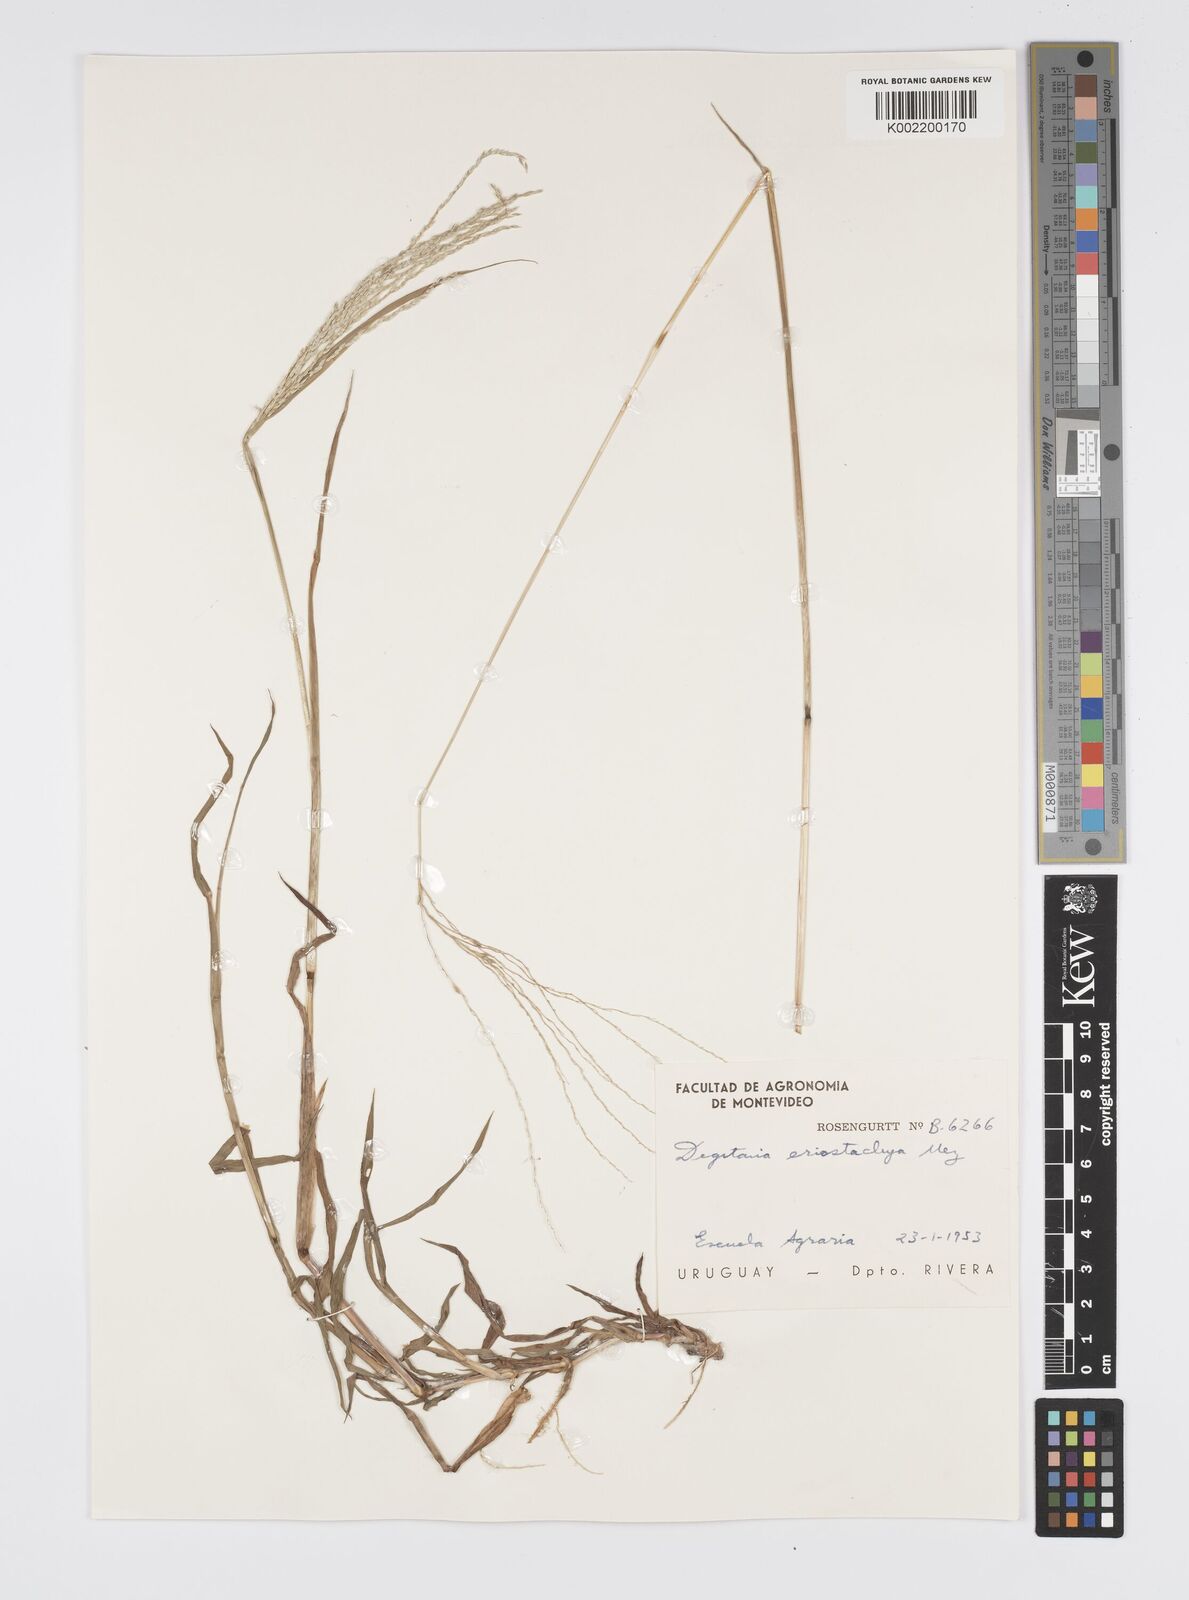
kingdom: Plantae
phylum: Tracheophyta
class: Liliopsida
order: Poales
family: Poaceae
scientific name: Poaceae
